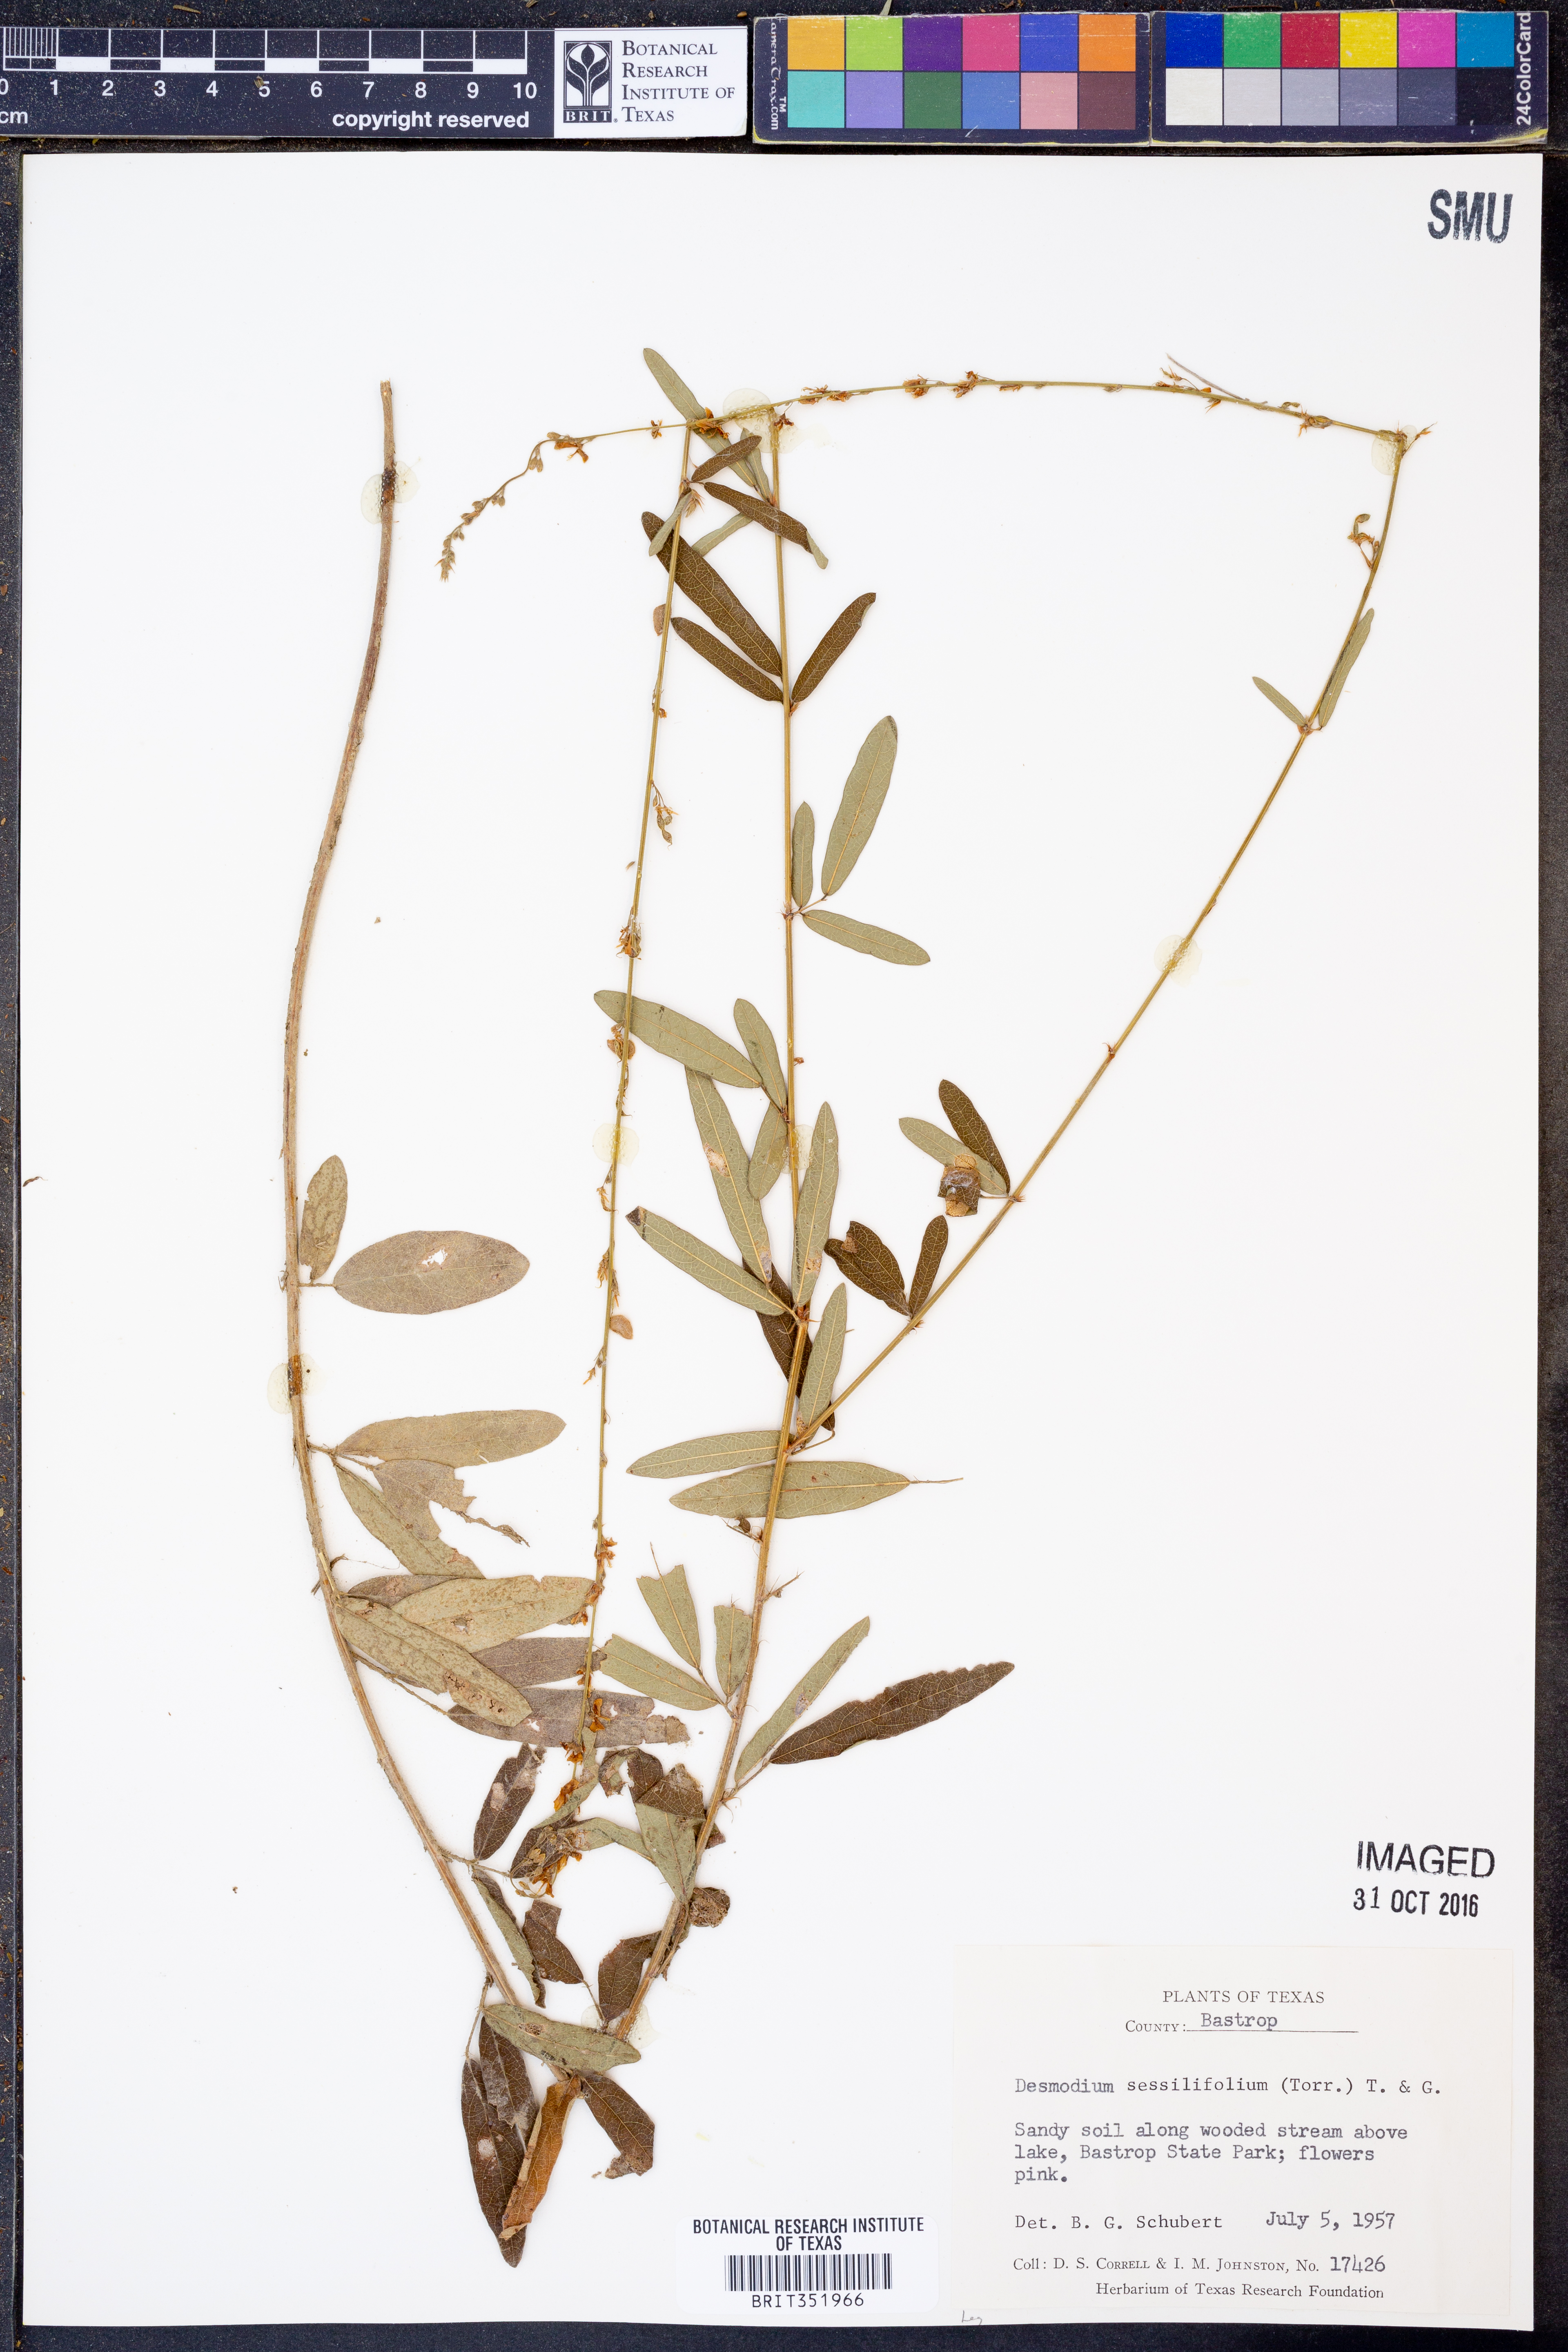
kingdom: Plantae
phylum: Tracheophyta
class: Magnoliopsida
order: Fabales
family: Fabaceae
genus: Desmodium
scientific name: Desmodium sessilifolium
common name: Sessile tick-clover
